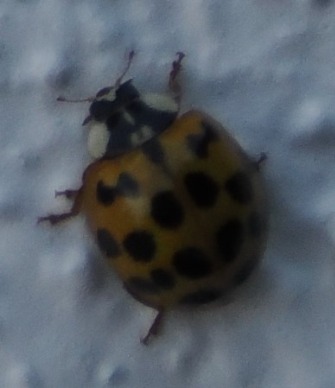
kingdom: Animalia
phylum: Arthropoda
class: Insecta
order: Coleoptera
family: Coccinellidae
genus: Harmonia
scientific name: Harmonia axyridis
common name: Harlekinmariehøne
